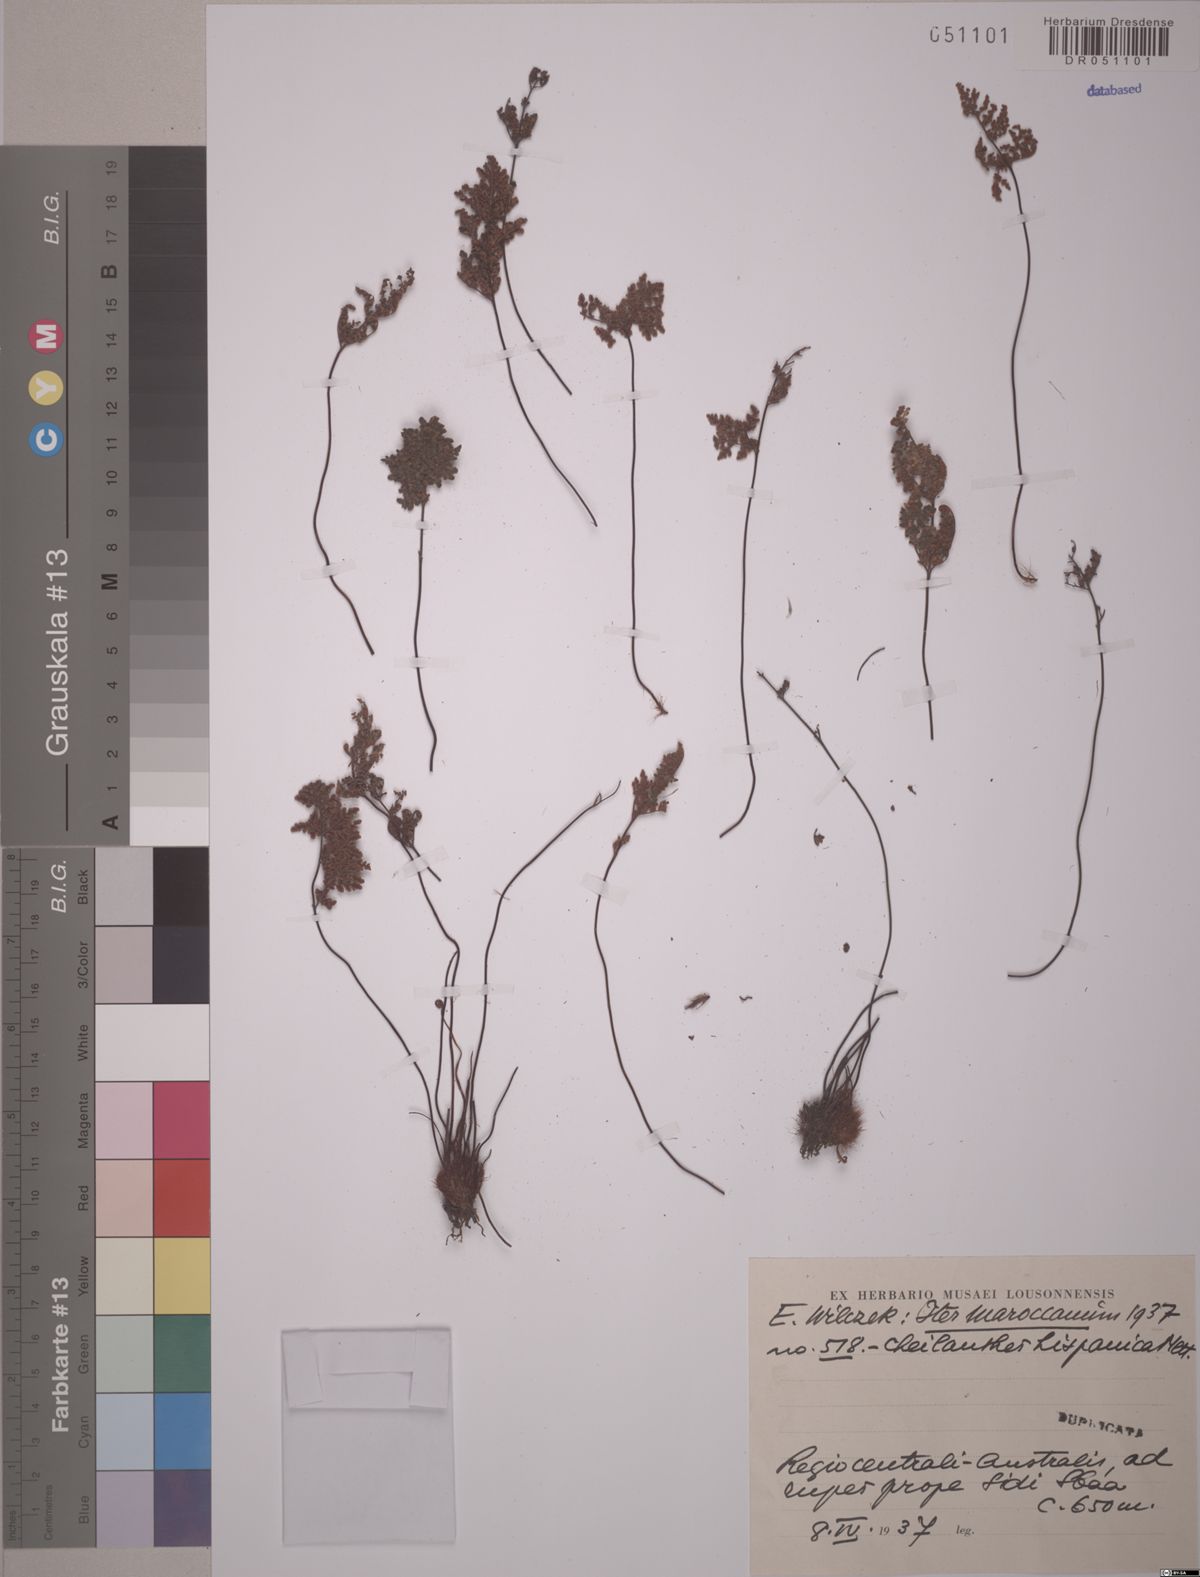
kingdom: Plantae
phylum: Tracheophyta
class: Polypodiopsida
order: Polypodiales
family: Pteridaceae
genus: Oeosporangium
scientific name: Oeosporangium hispanicum
